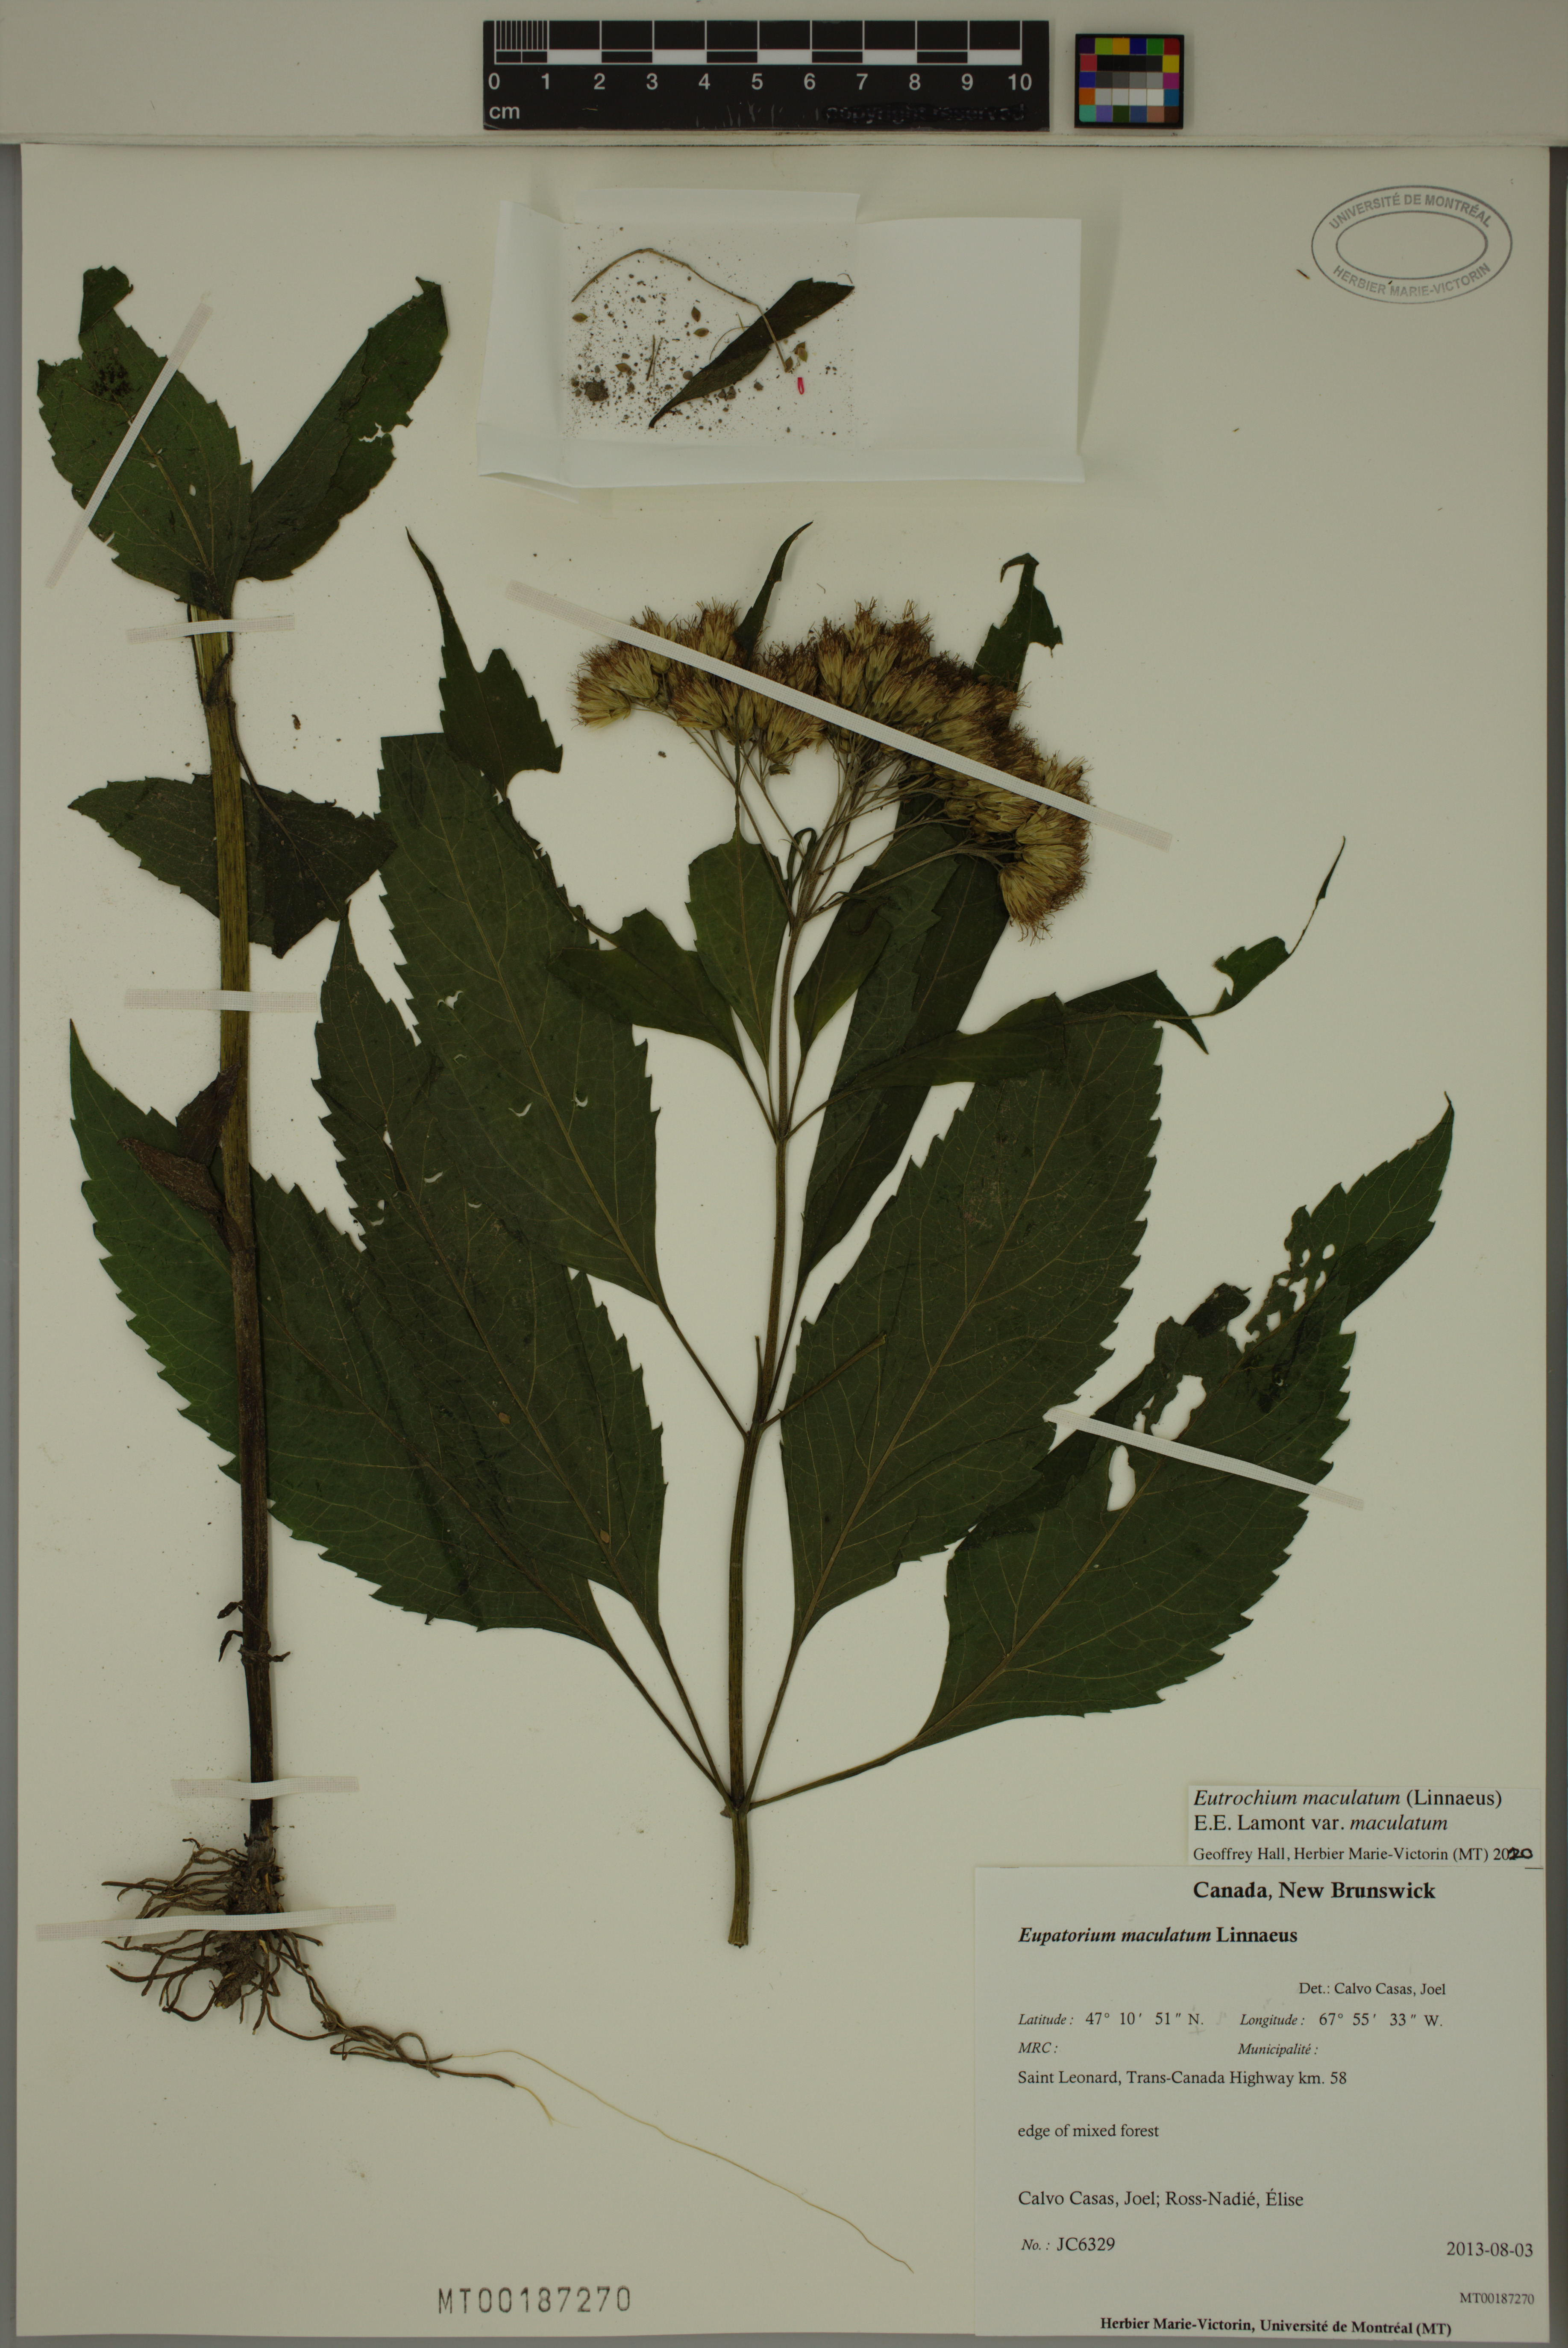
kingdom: Plantae
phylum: Tracheophyta
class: Magnoliopsida
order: Asterales
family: Asteraceae
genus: Eutrochium
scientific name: Eutrochium maculatum
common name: Spotted joe pye weed
